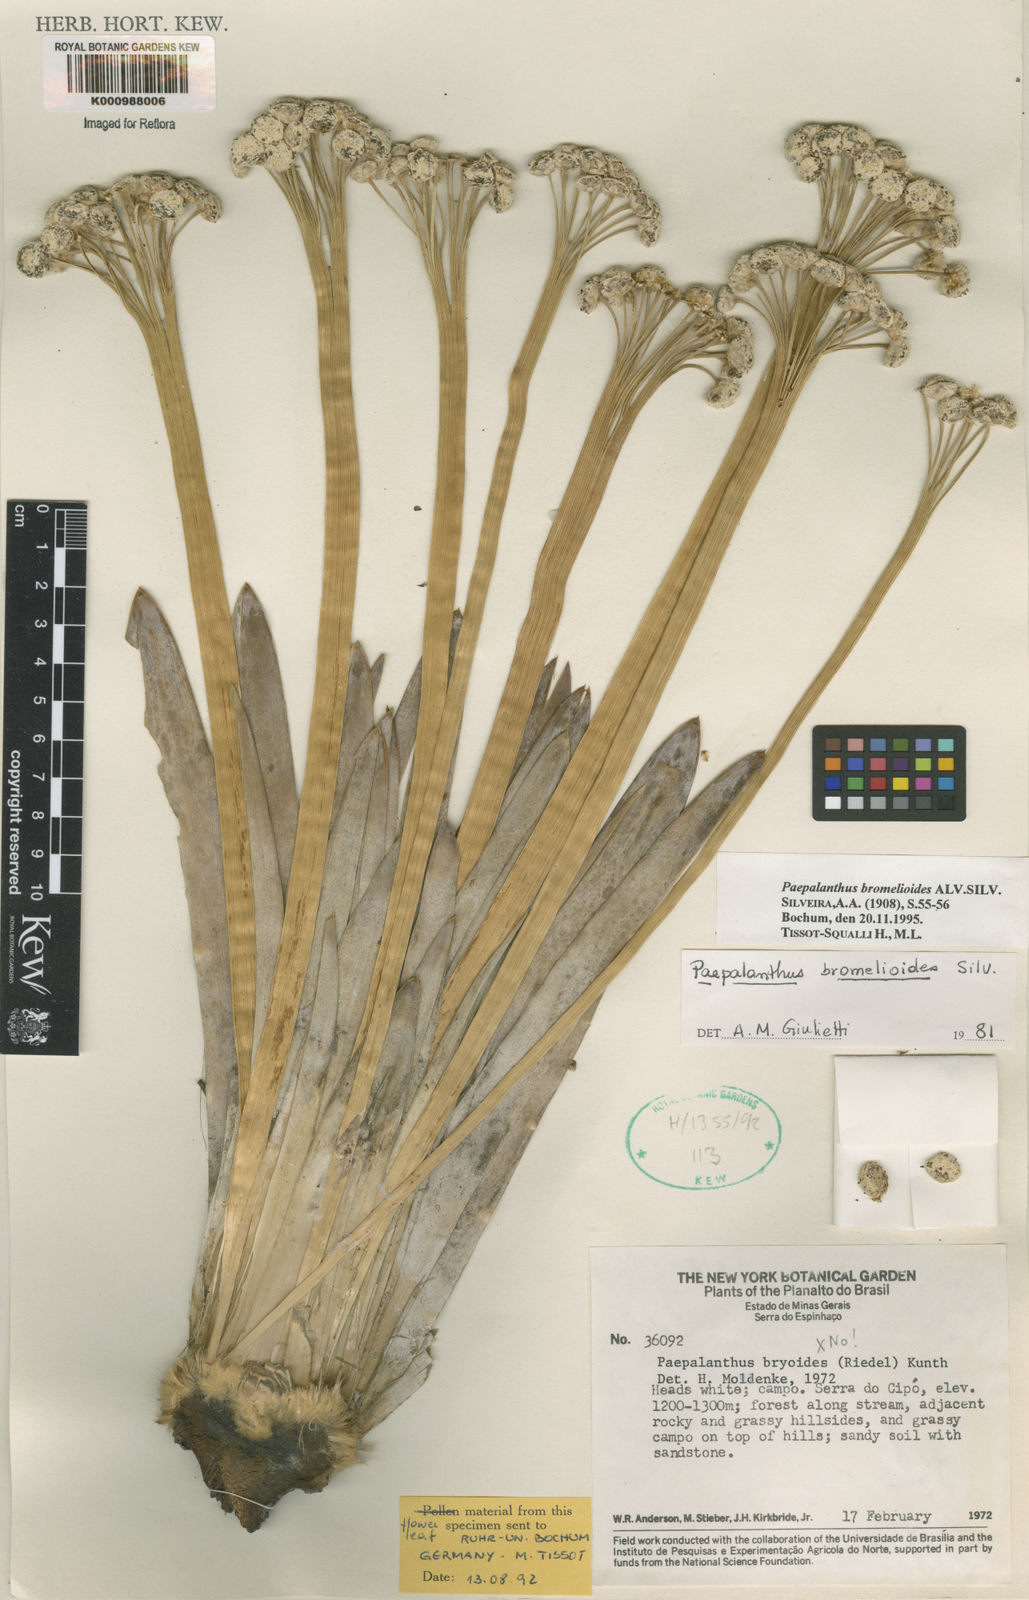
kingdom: Plantae
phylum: Tracheophyta
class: Liliopsida
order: Poales
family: Eriocaulaceae
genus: Paepalanthus
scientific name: Paepalanthus bromelioides
